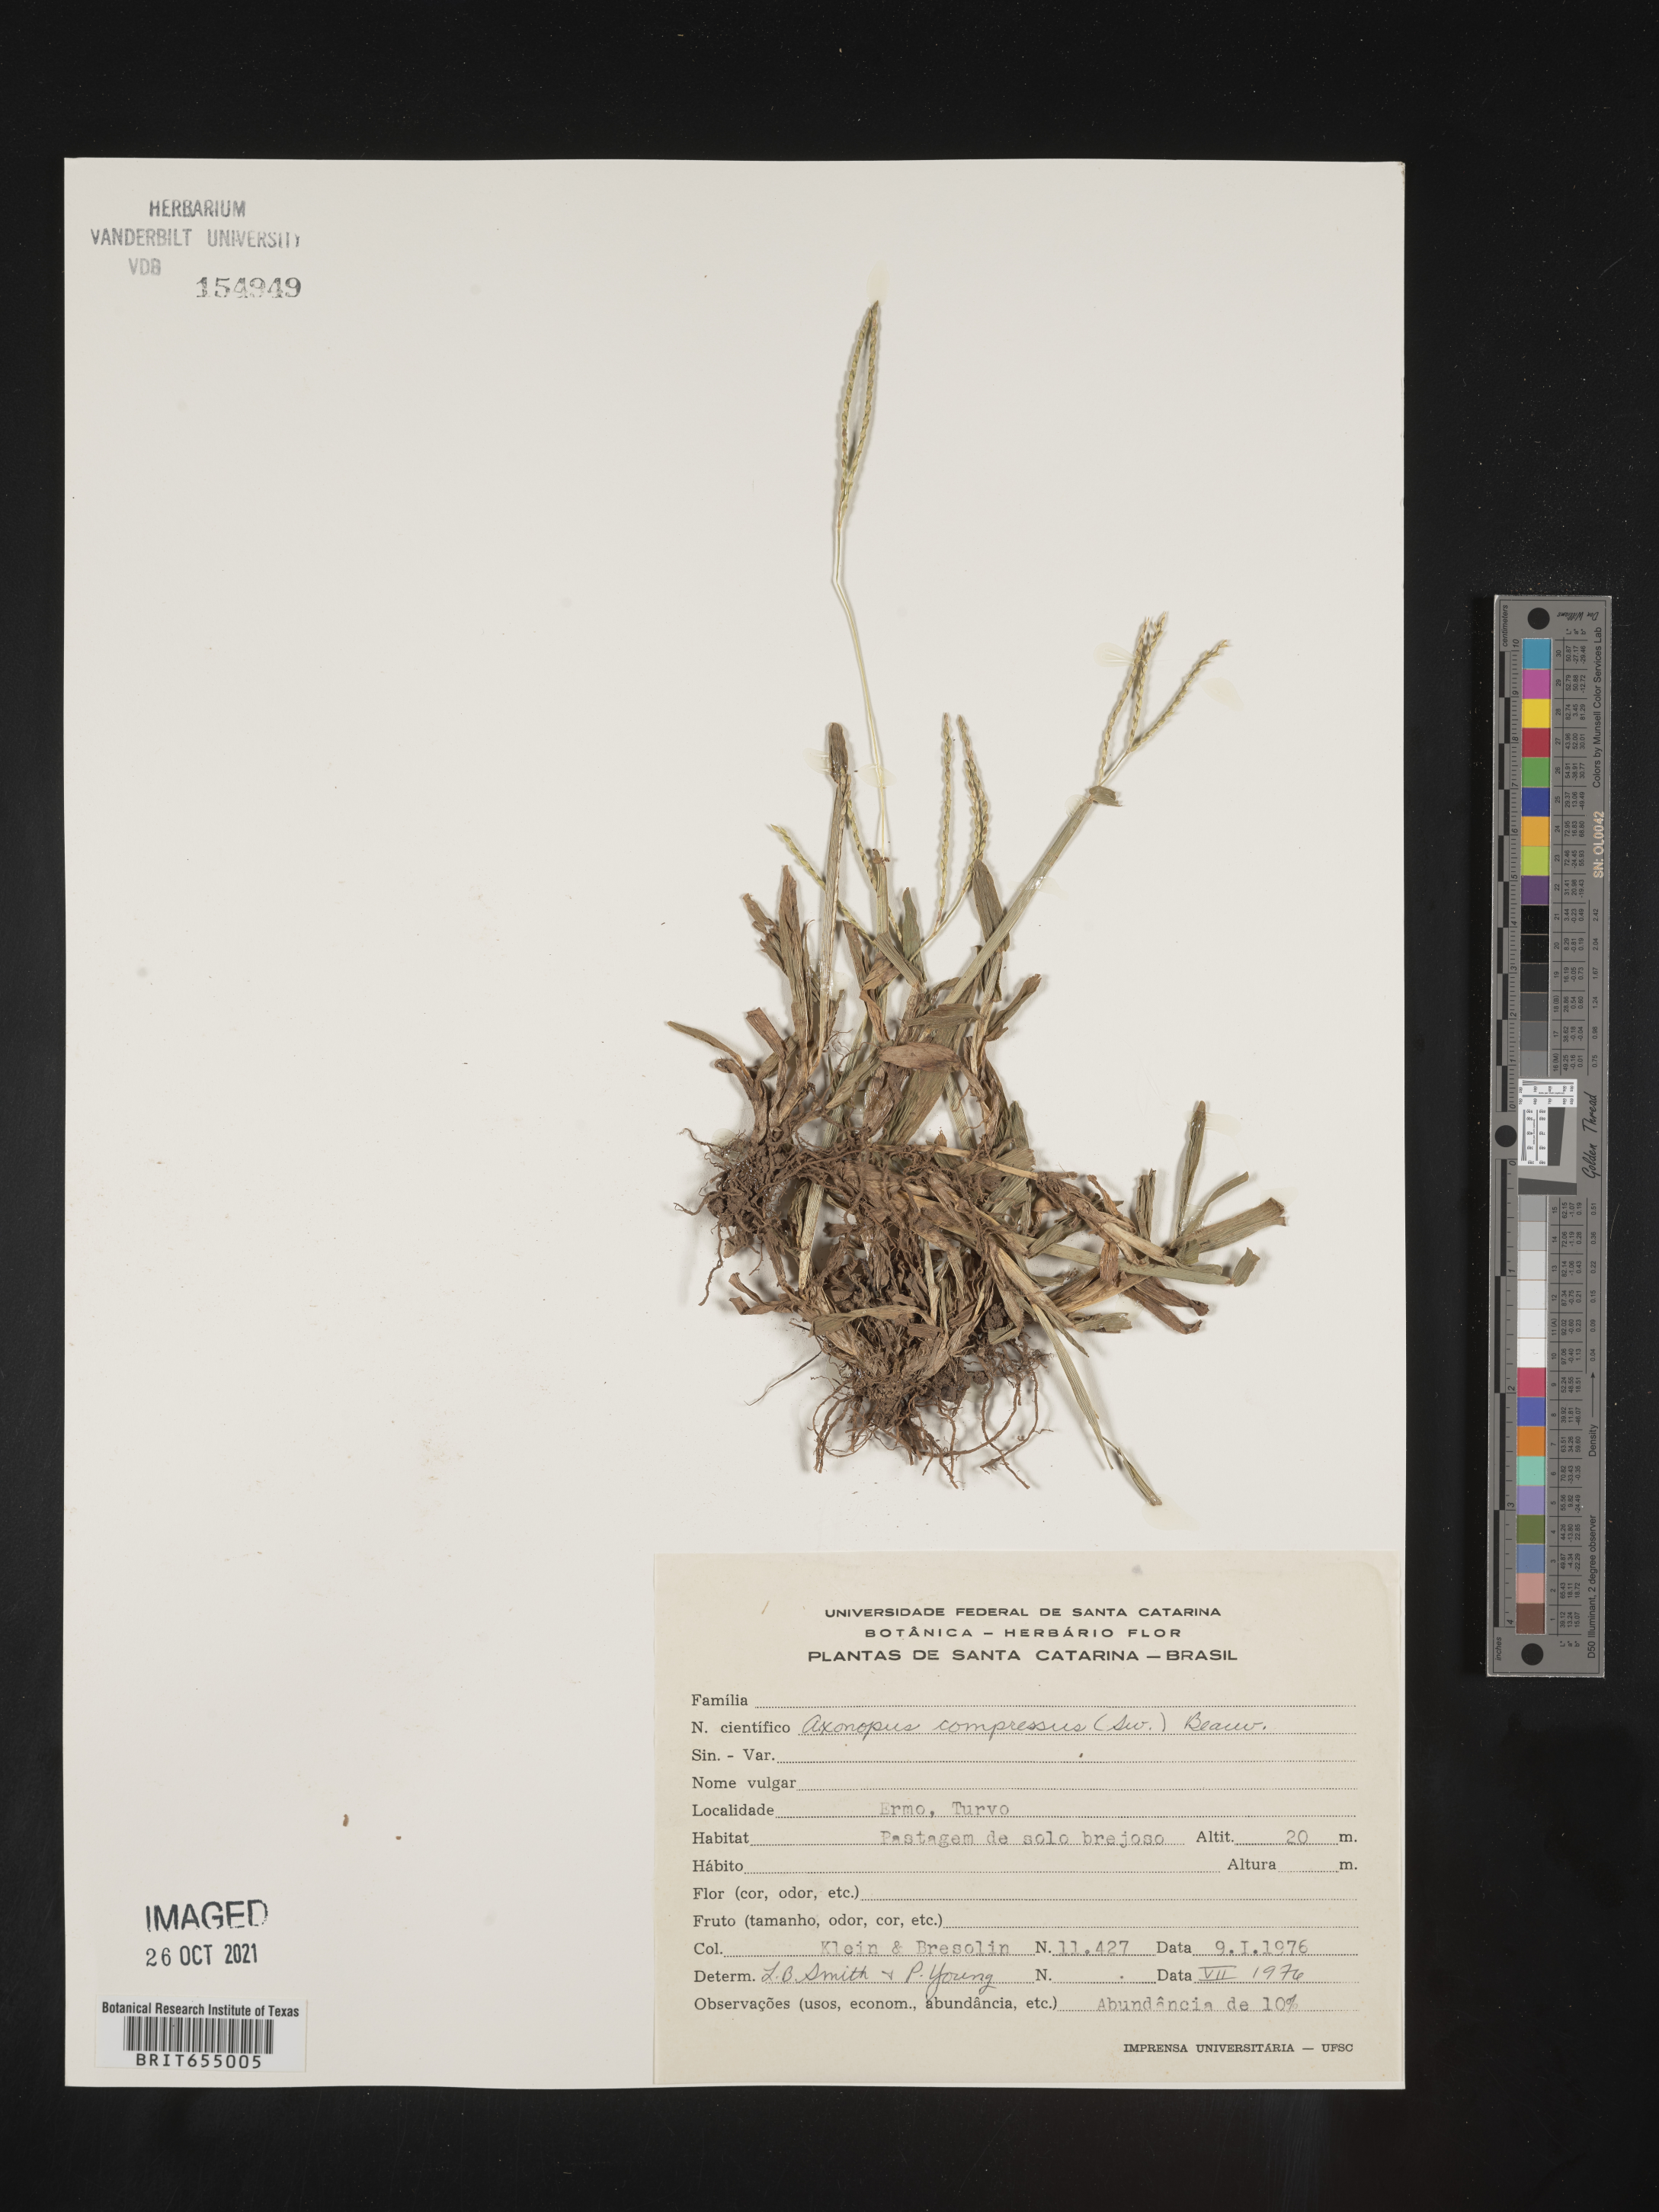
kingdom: Plantae
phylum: Tracheophyta
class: Liliopsida
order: Poales
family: Poaceae
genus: Axonopus
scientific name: Axonopus
